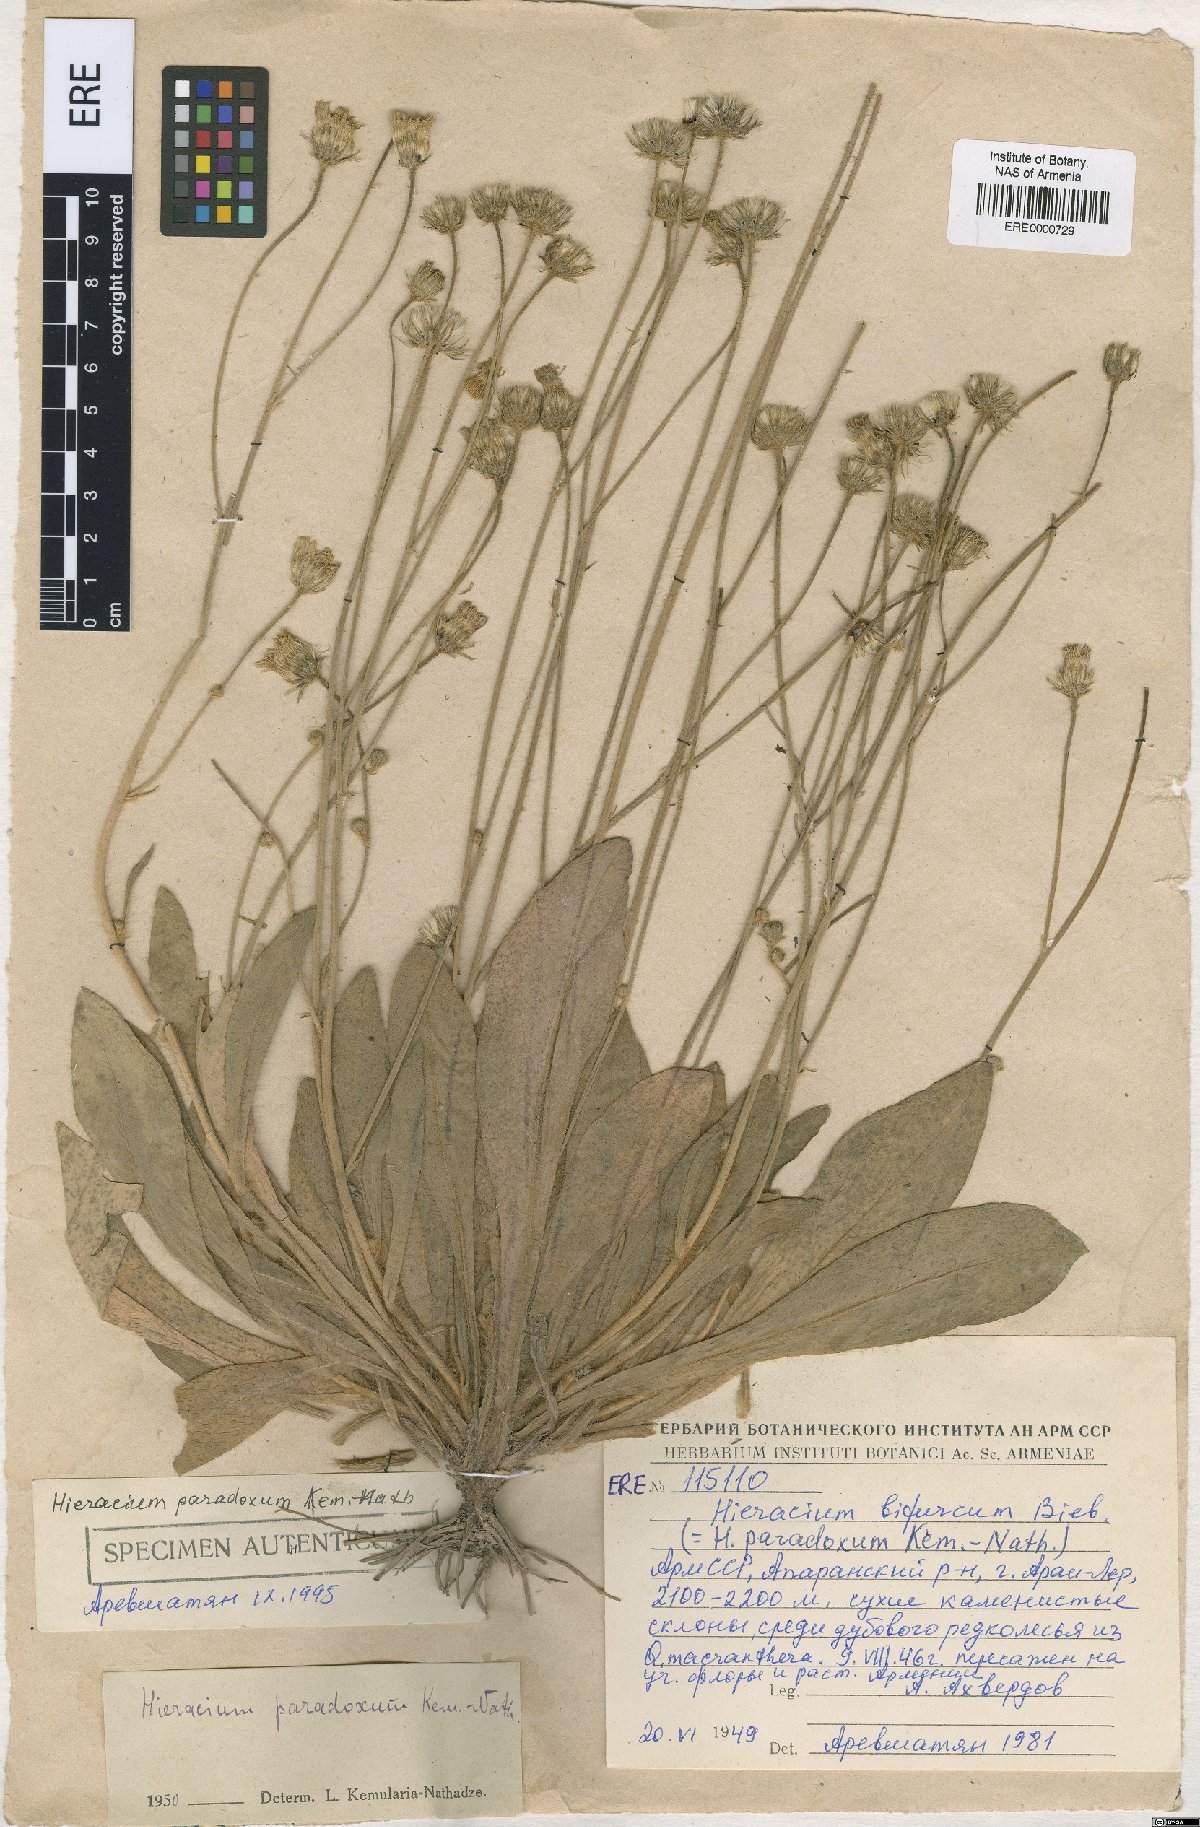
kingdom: Plantae
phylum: Tracheophyta
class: Magnoliopsida
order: Asterales
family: Asteraceae
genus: Pilosella
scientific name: Pilosella officinarum
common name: Mouse-ear hawkweed
